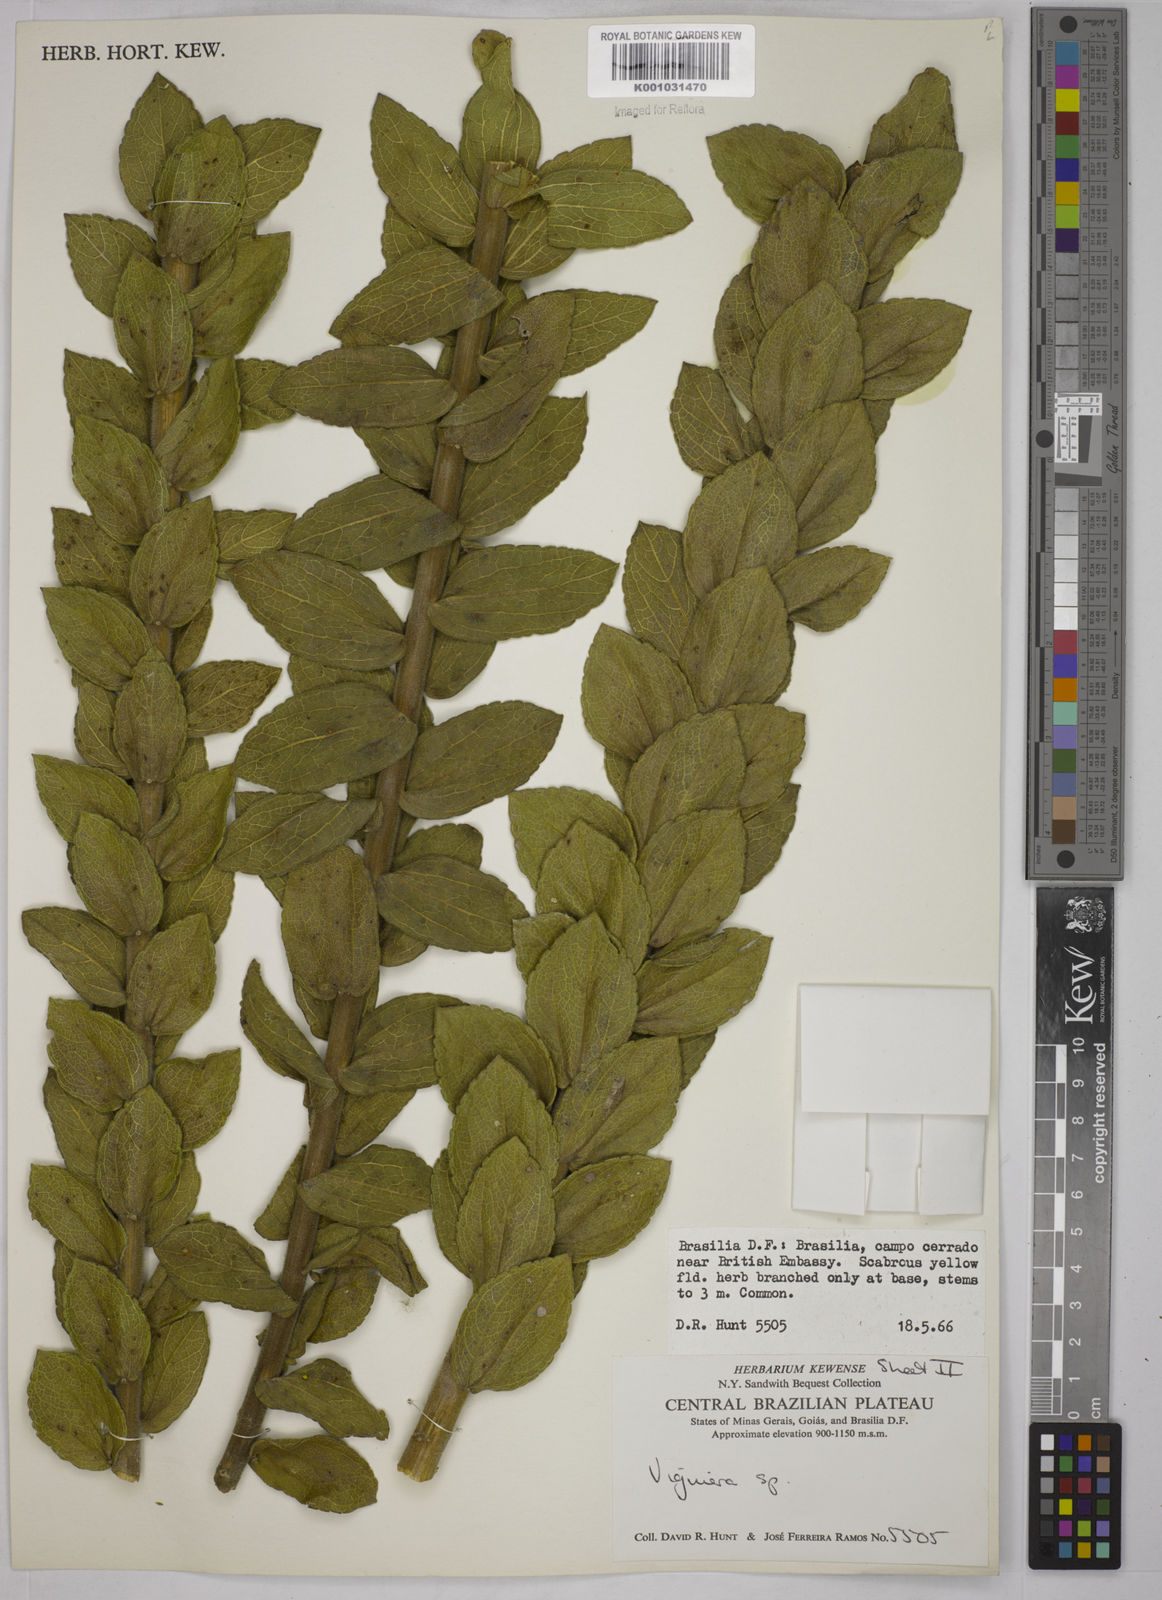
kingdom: Plantae
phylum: Tracheophyta
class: Magnoliopsida
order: Asterales
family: Asteraceae
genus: Aldama
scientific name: Aldama robusta
